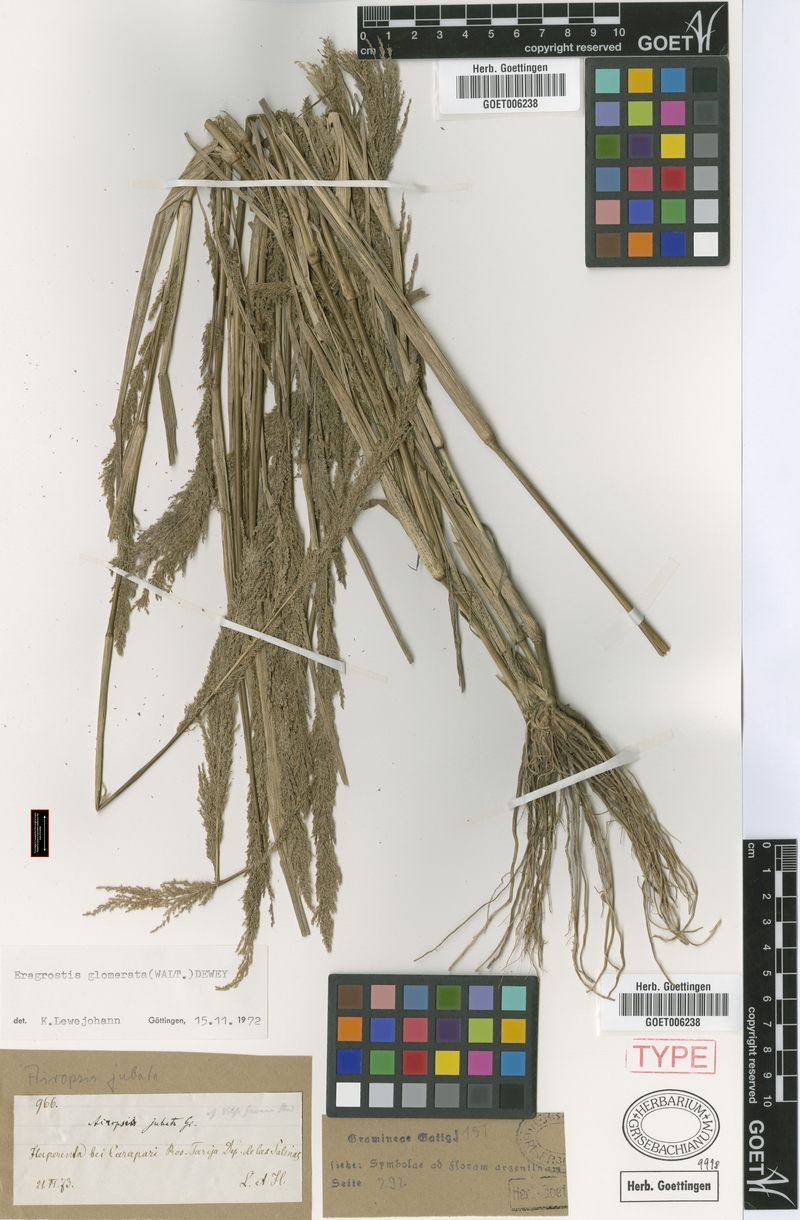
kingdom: Plantae
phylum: Tracheophyta
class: Liliopsida
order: Poales
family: Poaceae
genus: Eragrostis
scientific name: Eragrostis japonica
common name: Pond lovegrass
